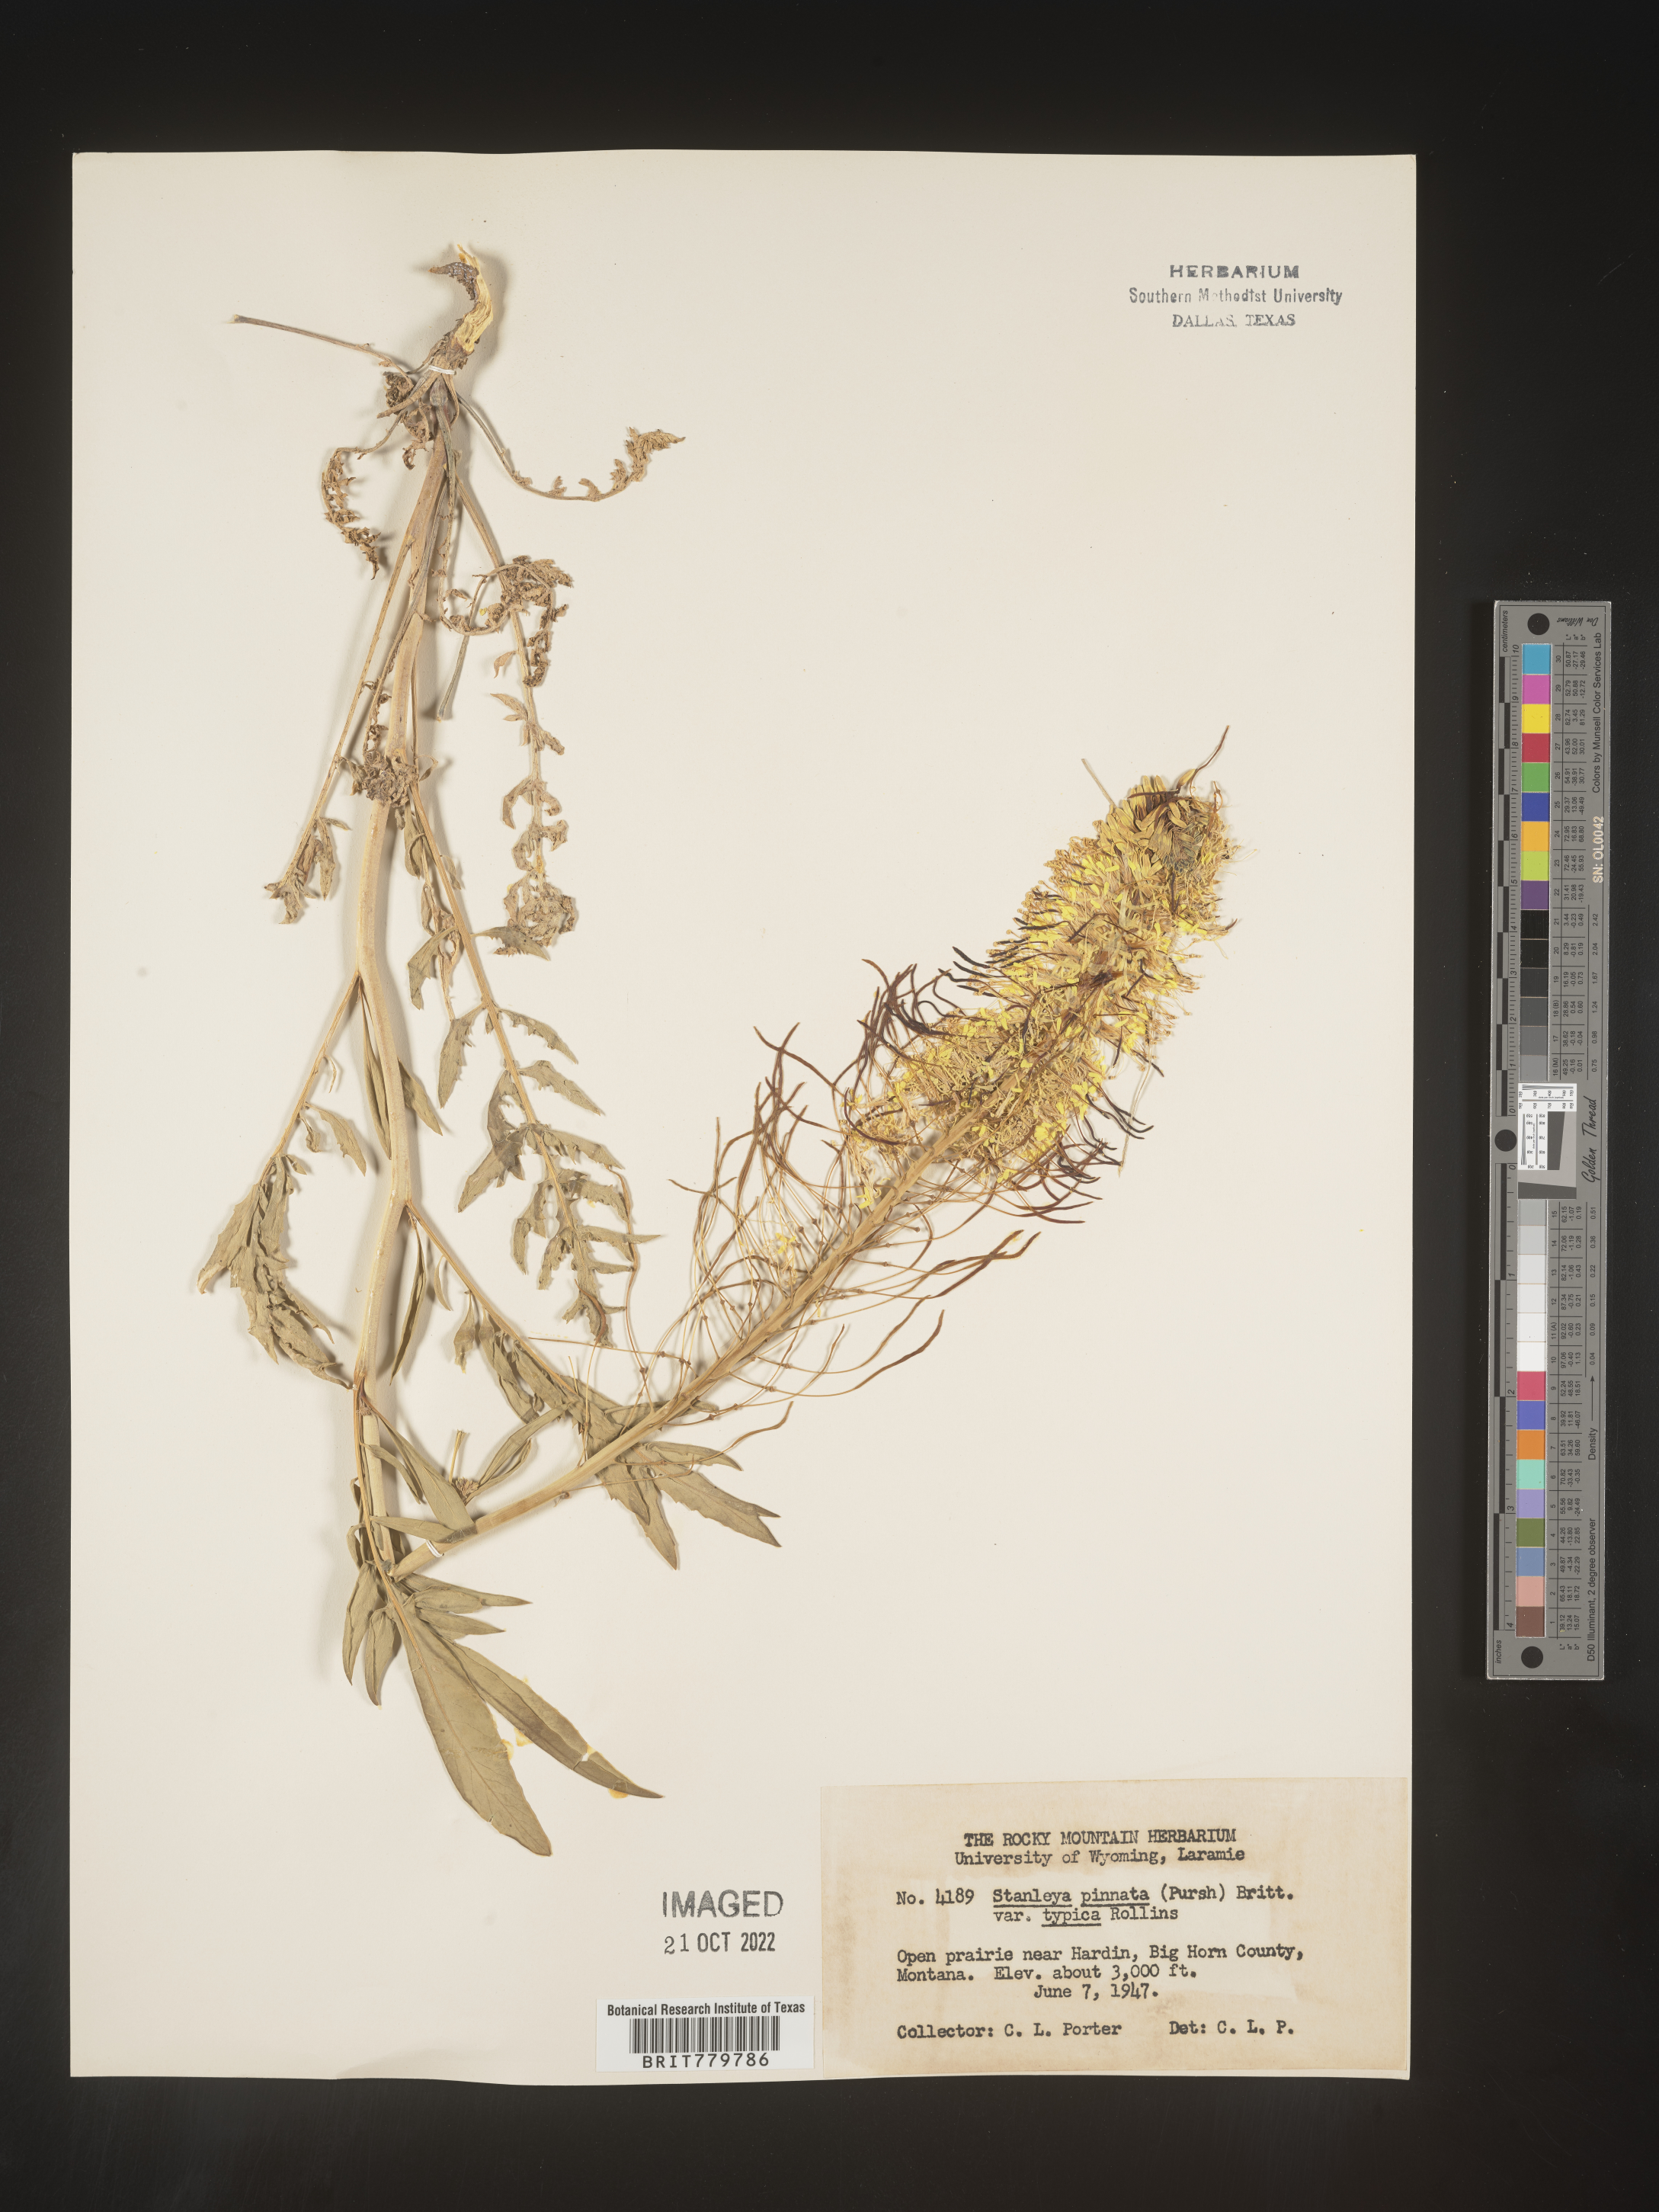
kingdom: Plantae
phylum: Tracheophyta
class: Magnoliopsida
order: Brassicales
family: Brassicaceae
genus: Stanleya
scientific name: Stanleya pinnata
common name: Prince's-plume
